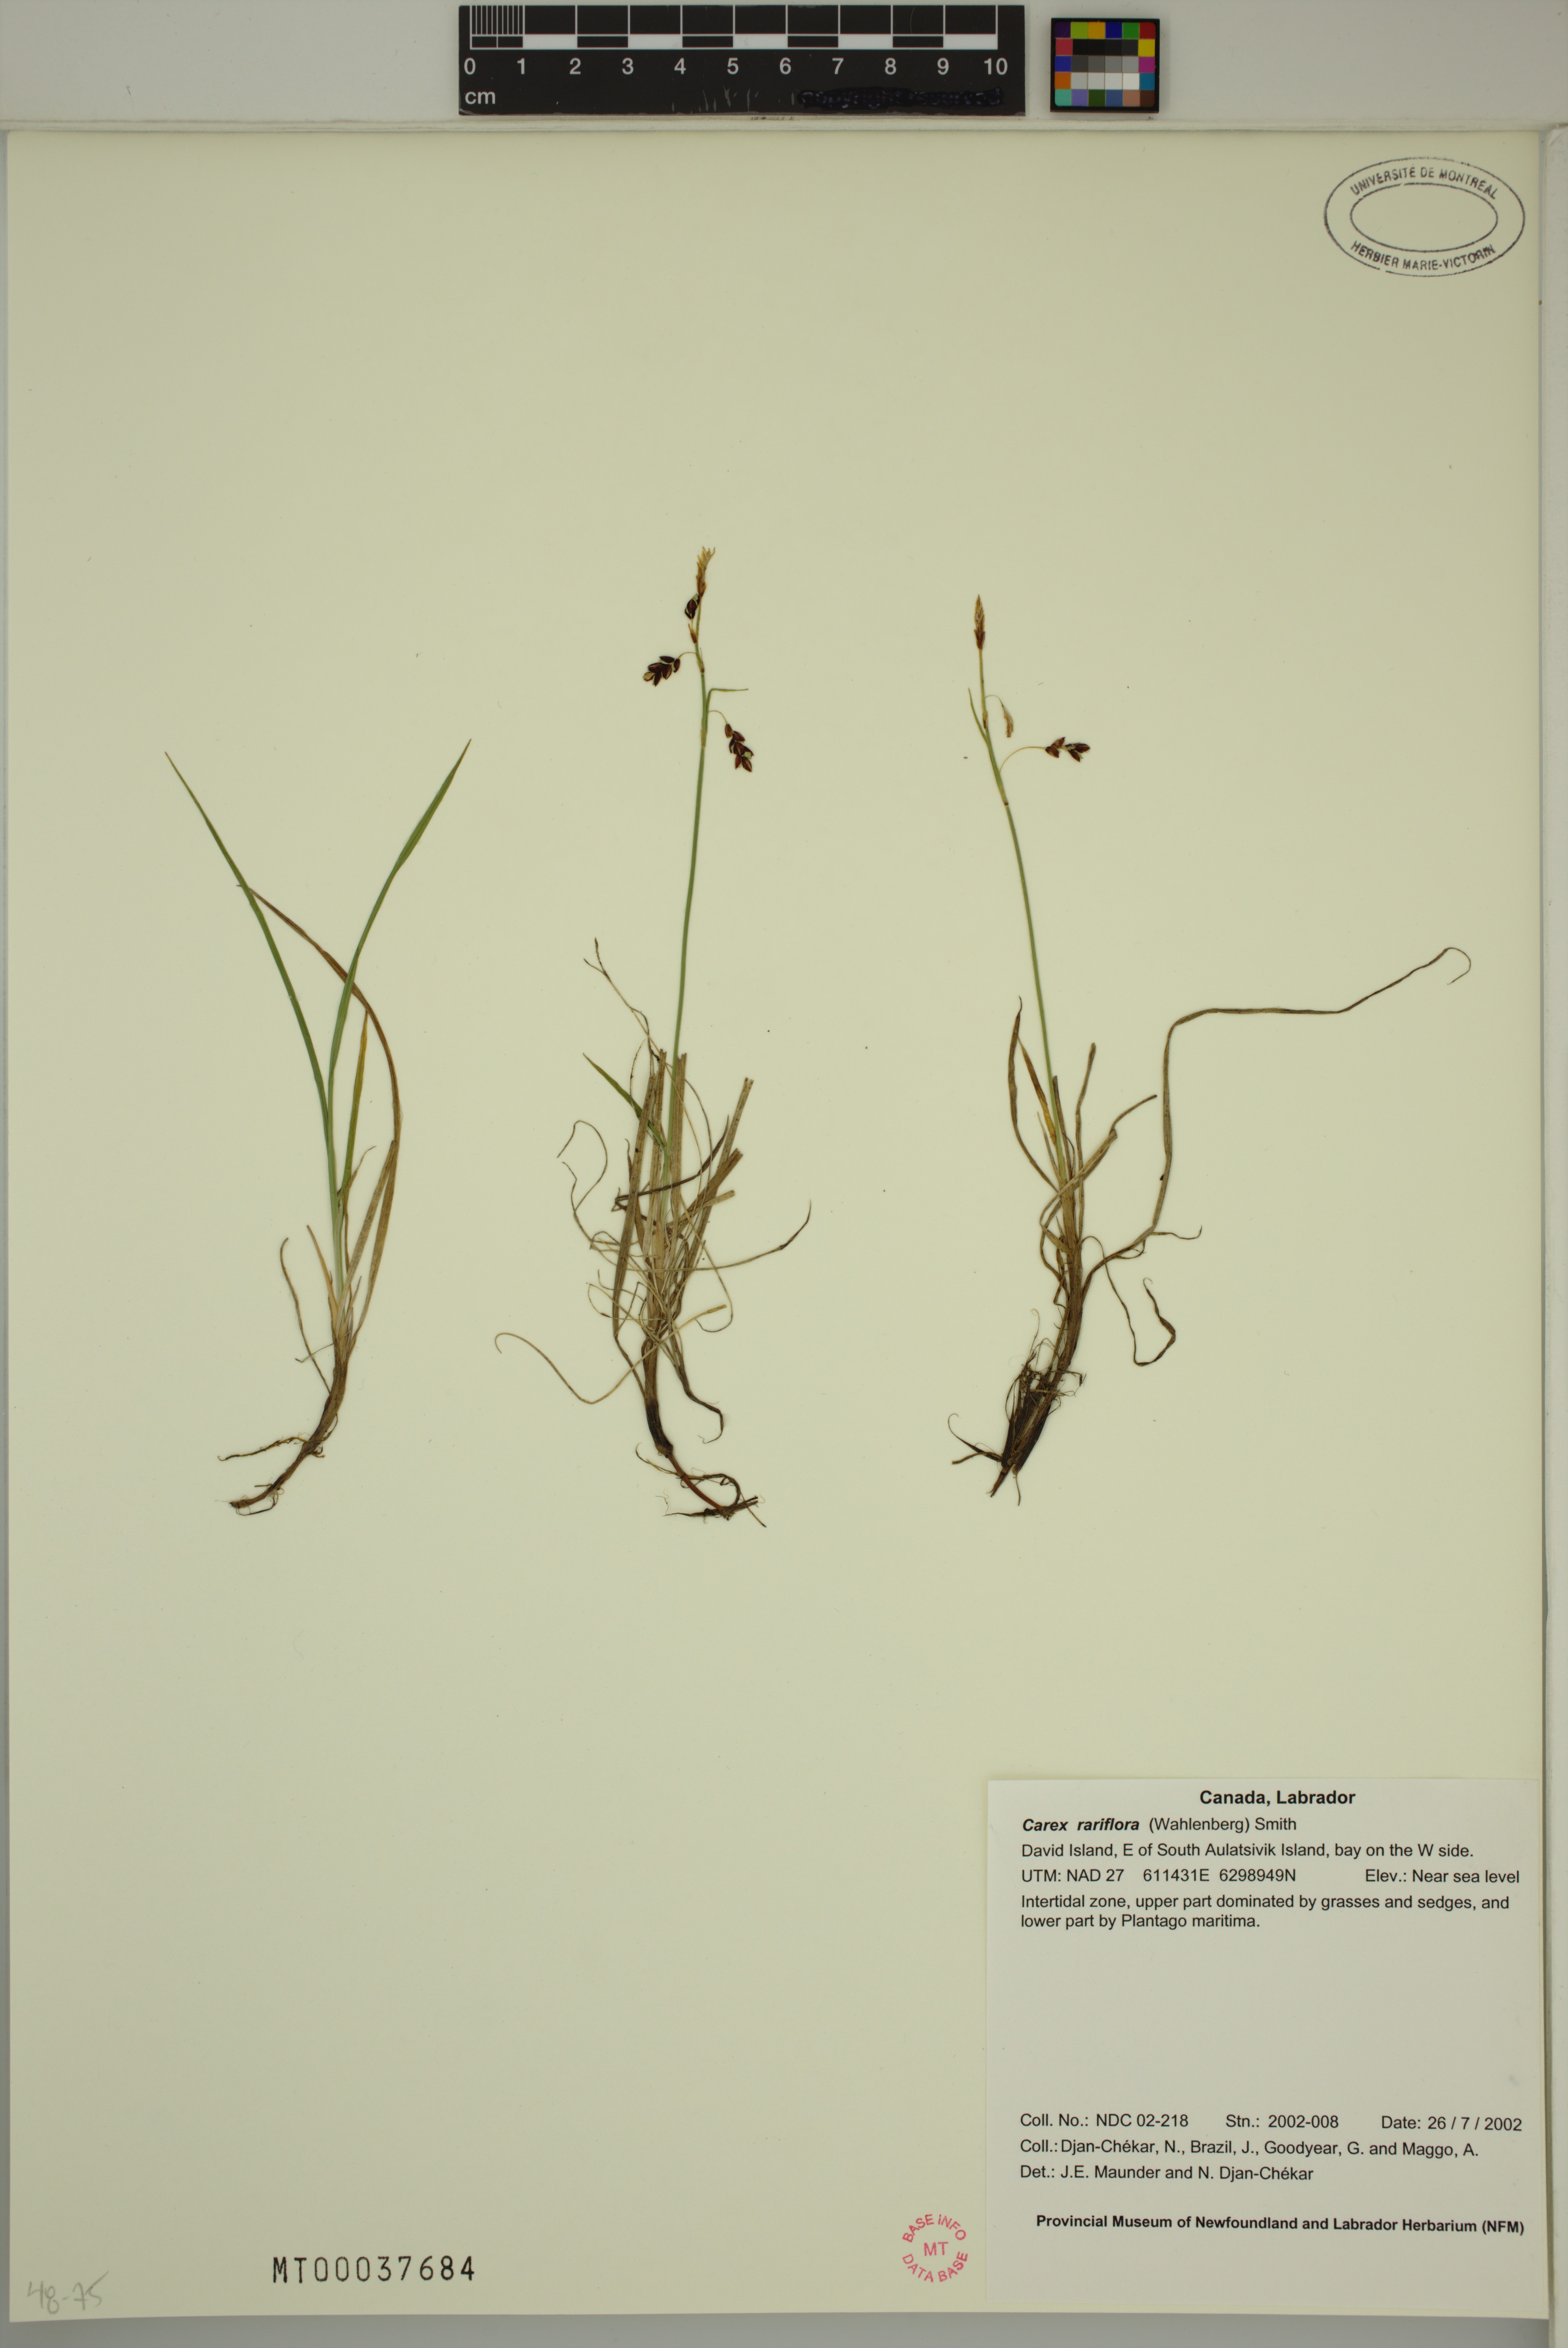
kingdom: Plantae
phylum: Tracheophyta
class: Liliopsida
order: Poales
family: Cyperaceae
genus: Carex
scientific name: Carex rariflora
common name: Loose-flowered alpine sedge
